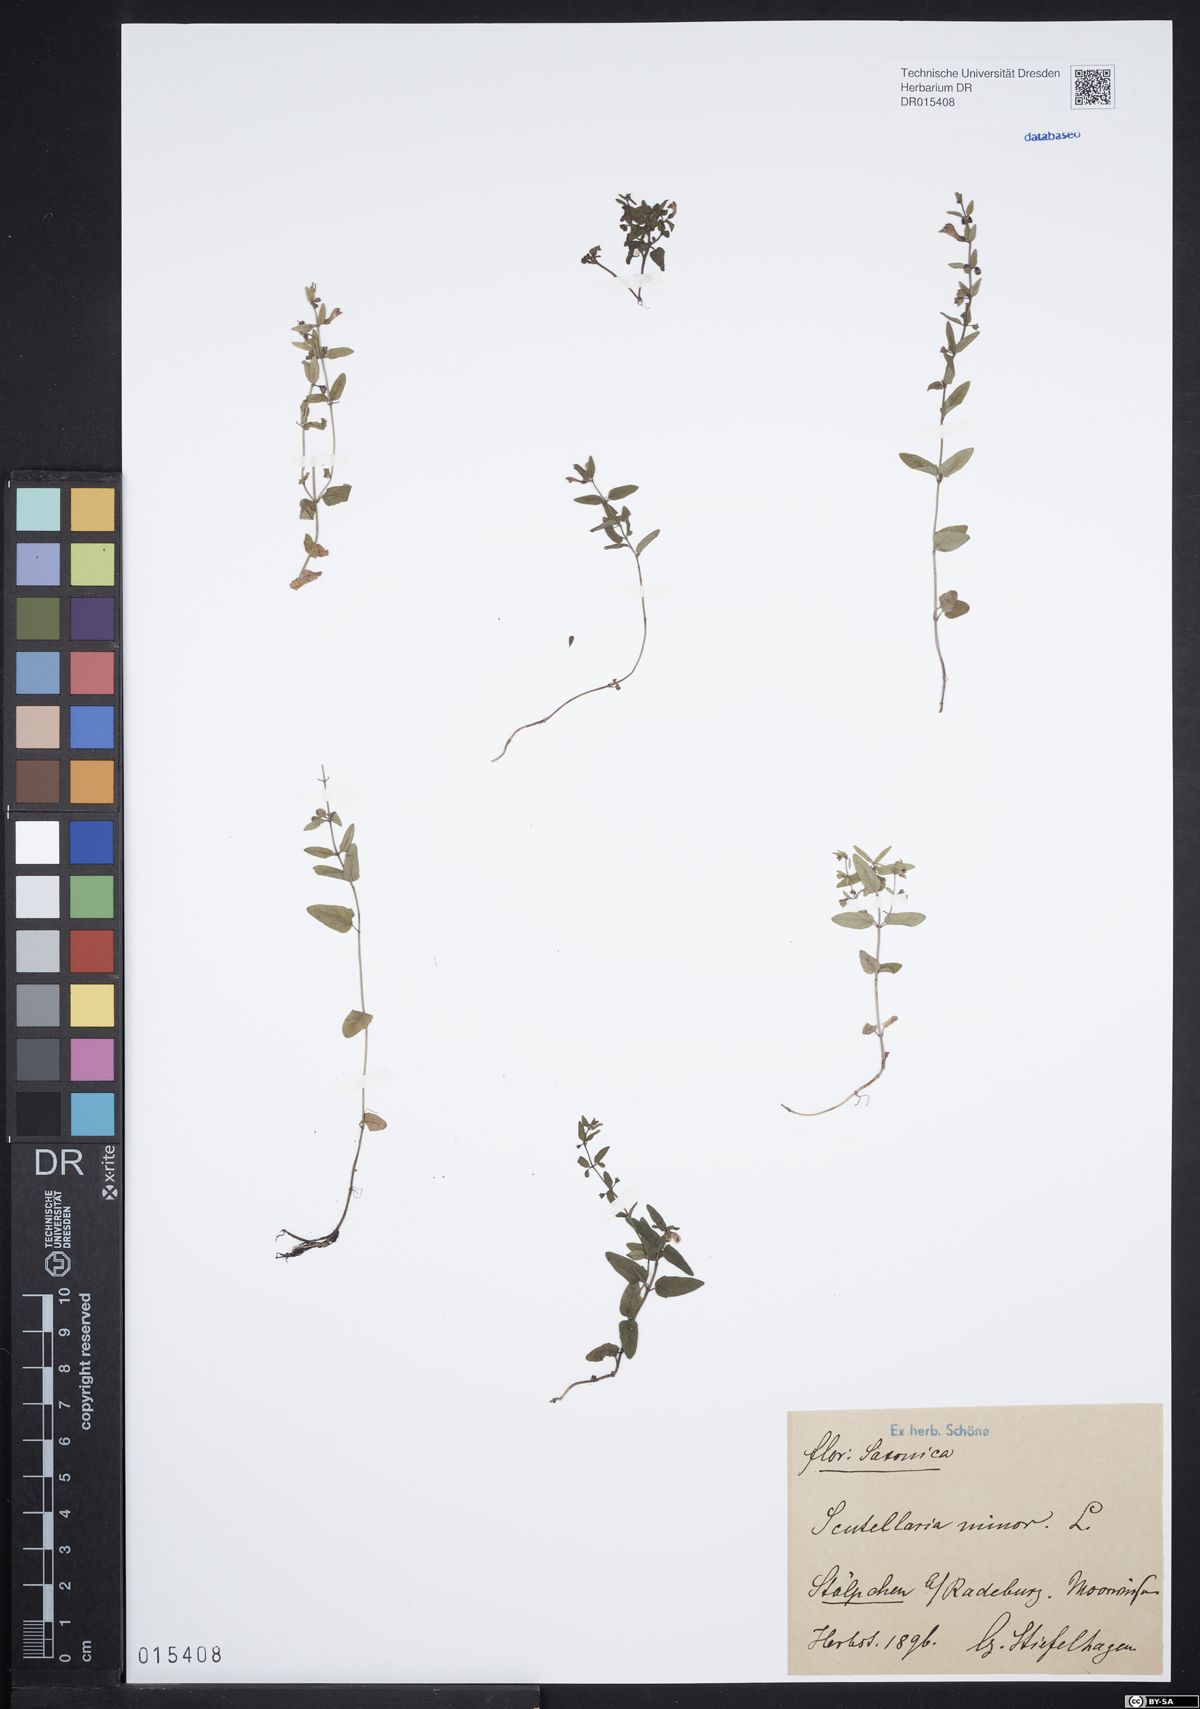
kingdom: Plantae
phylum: Tracheophyta
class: Magnoliopsida
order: Lamiales
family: Lamiaceae
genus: Scutellaria
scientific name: Scutellaria minor
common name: Lesser skullcap
